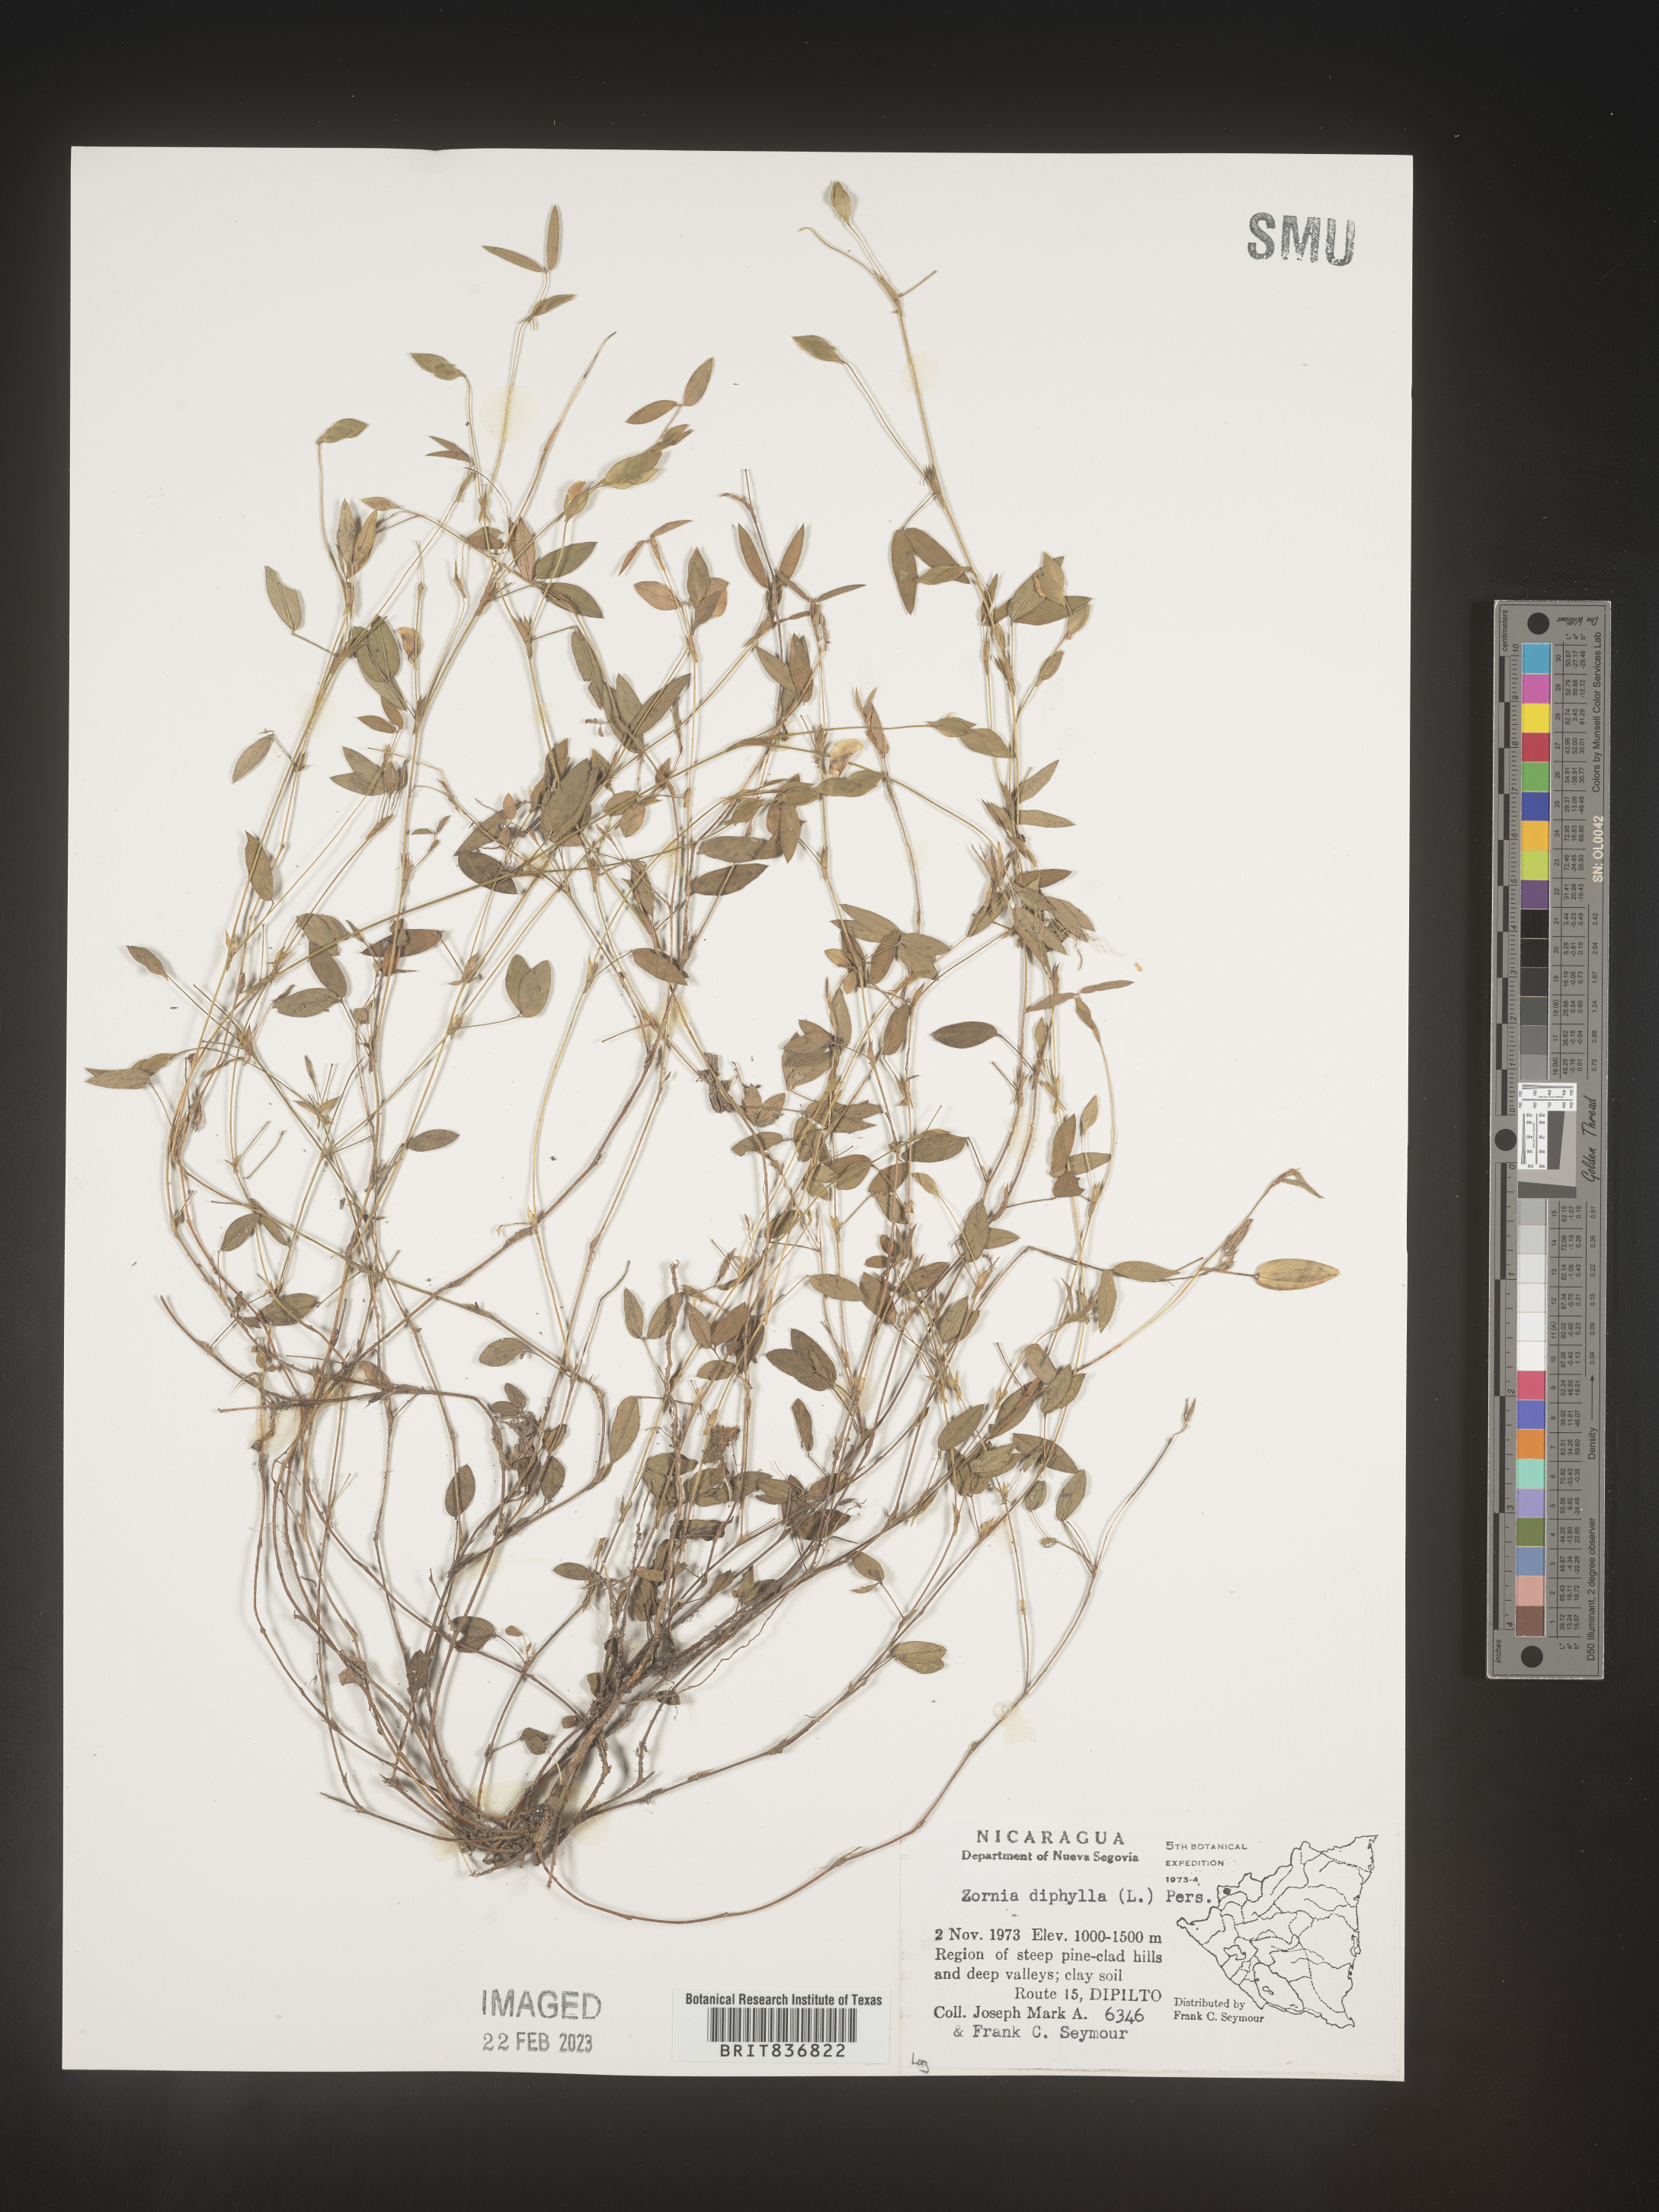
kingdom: Plantae
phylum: Tracheophyta
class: Magnoliopsida
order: Fabales
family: Fabaceae
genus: Zornia
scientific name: Zornia
